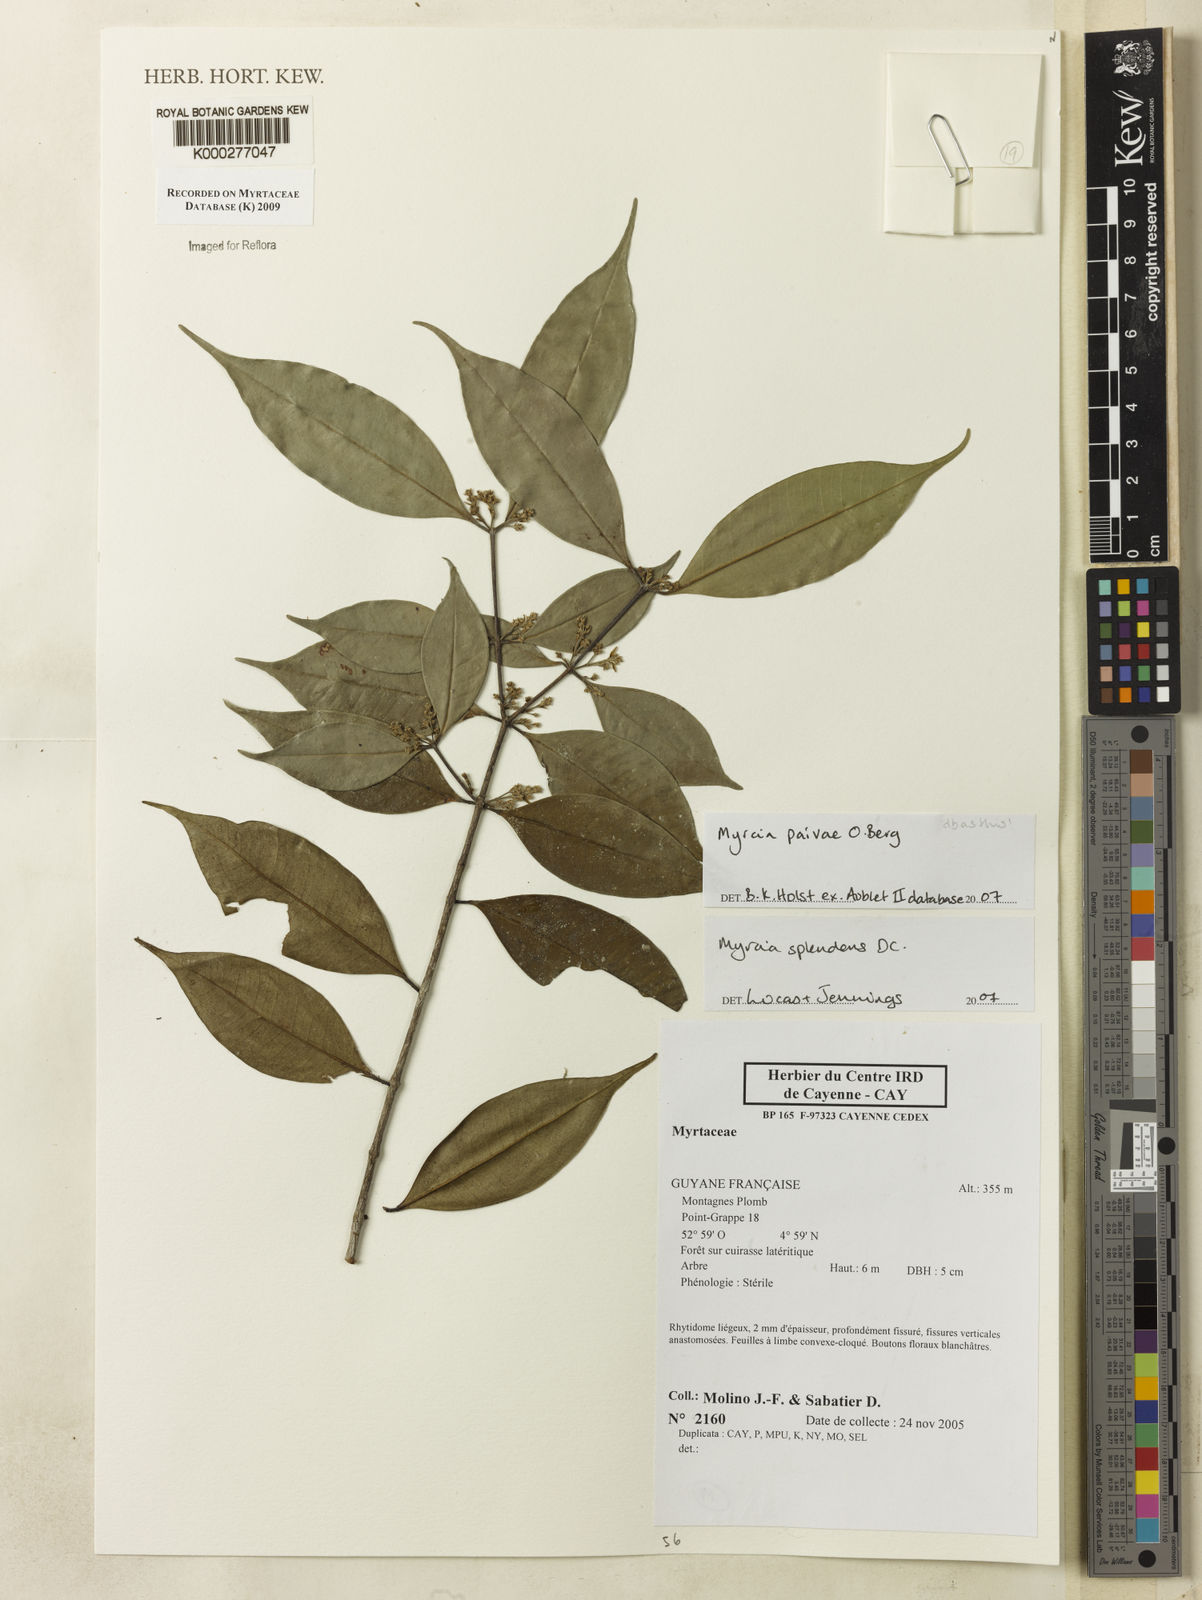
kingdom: Plantae
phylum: Tracheophyta
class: Magnoliopsida
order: Myrtales
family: Myrtaceae
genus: Myrcia
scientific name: Myrcia splendens
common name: Surinam cherry
